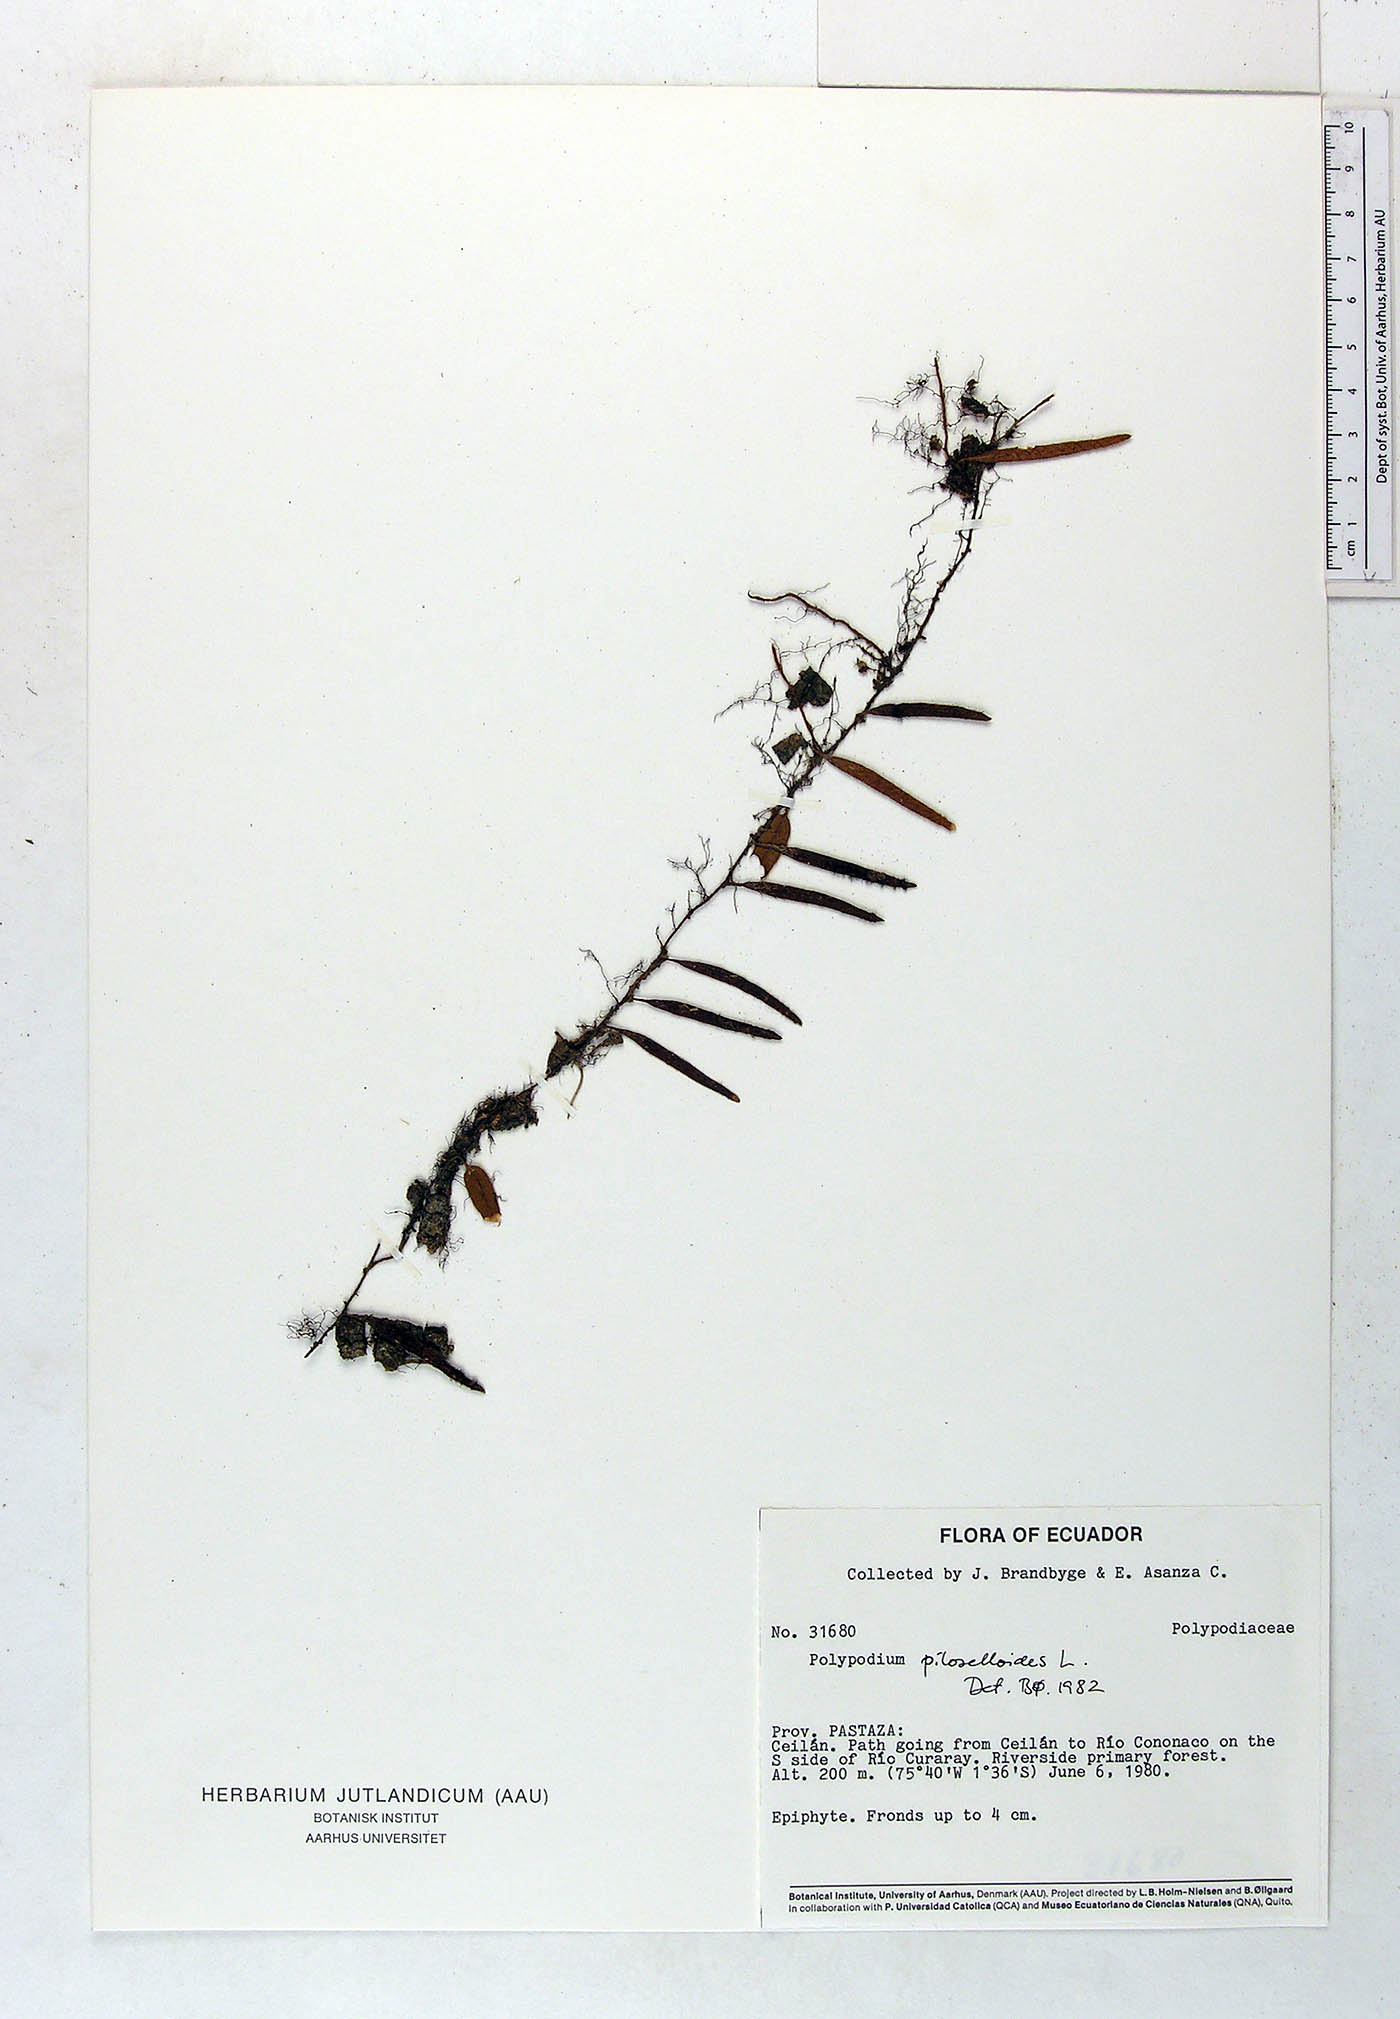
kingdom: Plantae
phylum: Tracheophyta
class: Polypodiopsida
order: Polypodiales
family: Polypodiaceae
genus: Microgramma
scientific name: Microgramma piloselloides
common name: Hairy snakefern
